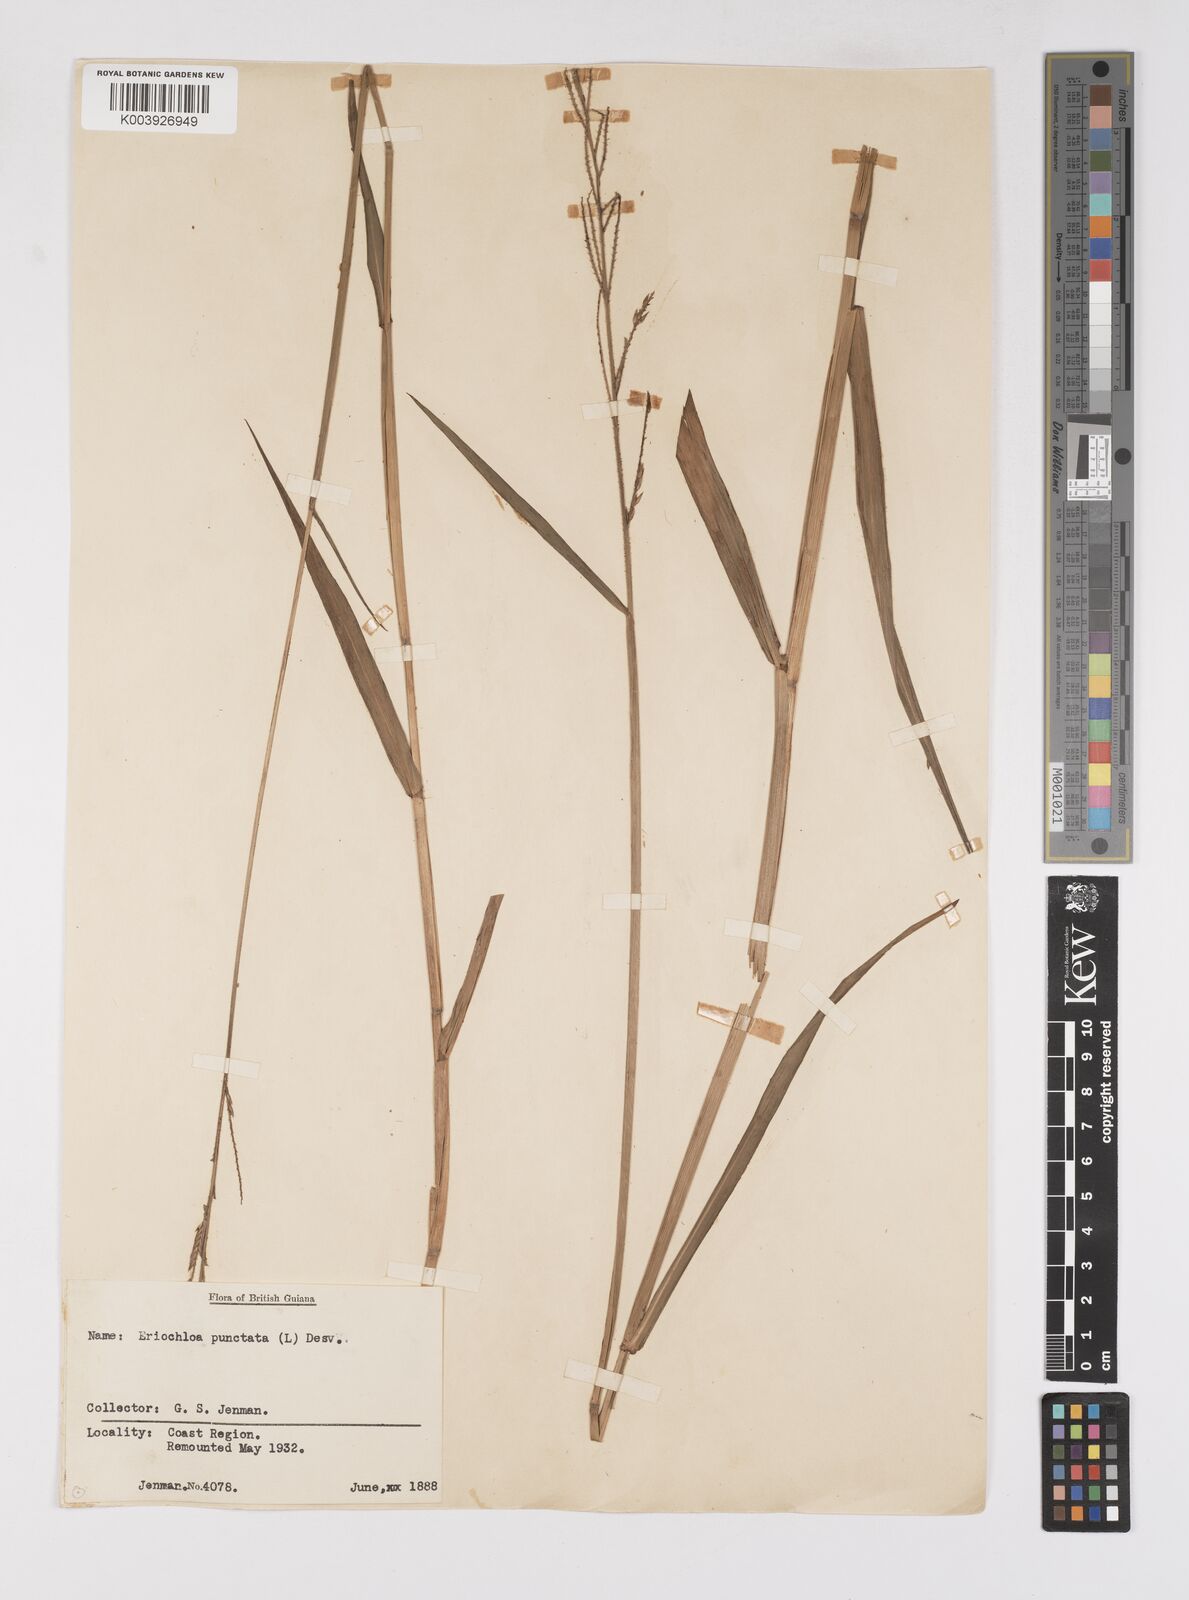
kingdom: Plantae
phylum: Tracheophyta
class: Liliopsida
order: Poales
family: Poaceae
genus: Eriochloa
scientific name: Eriochloa punctata
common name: Louisiana cupgrass
